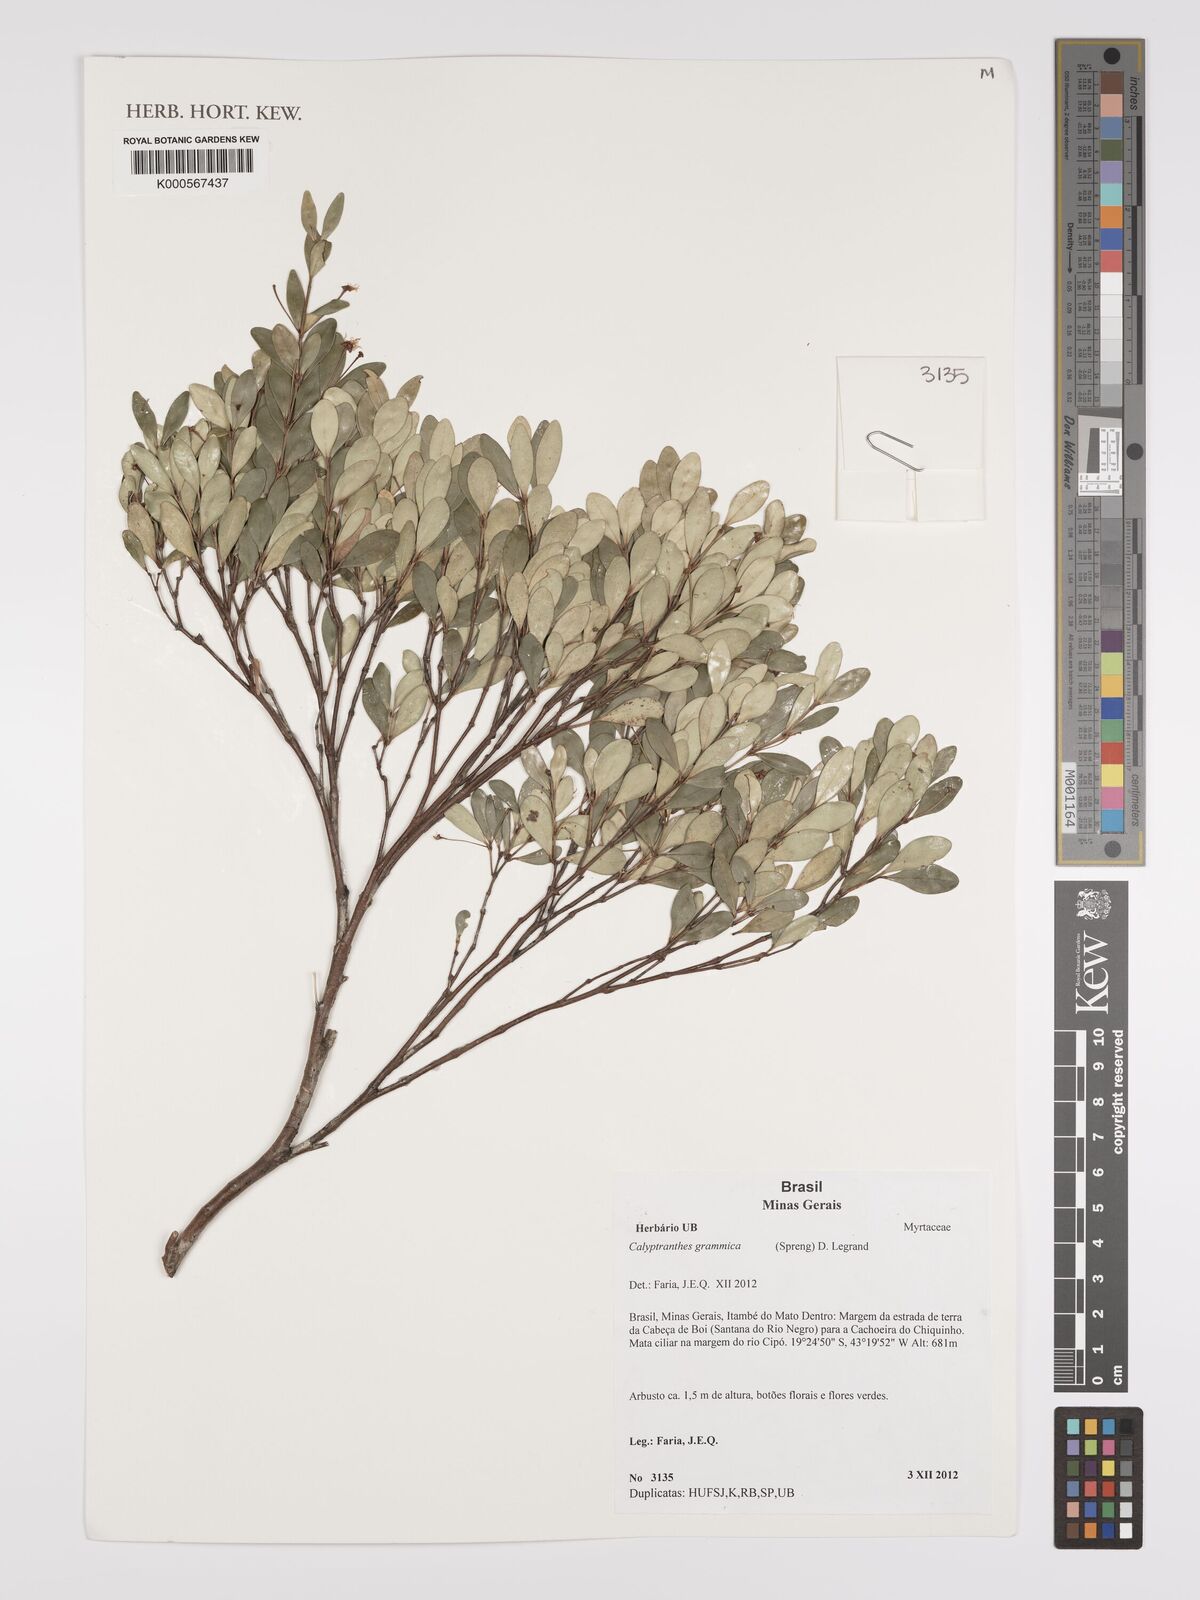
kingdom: Plantae
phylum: Tracheophyta
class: Magnoliopsida
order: Myrtales
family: Myrtaceae
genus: Myrcia
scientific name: Myrcia grammica
